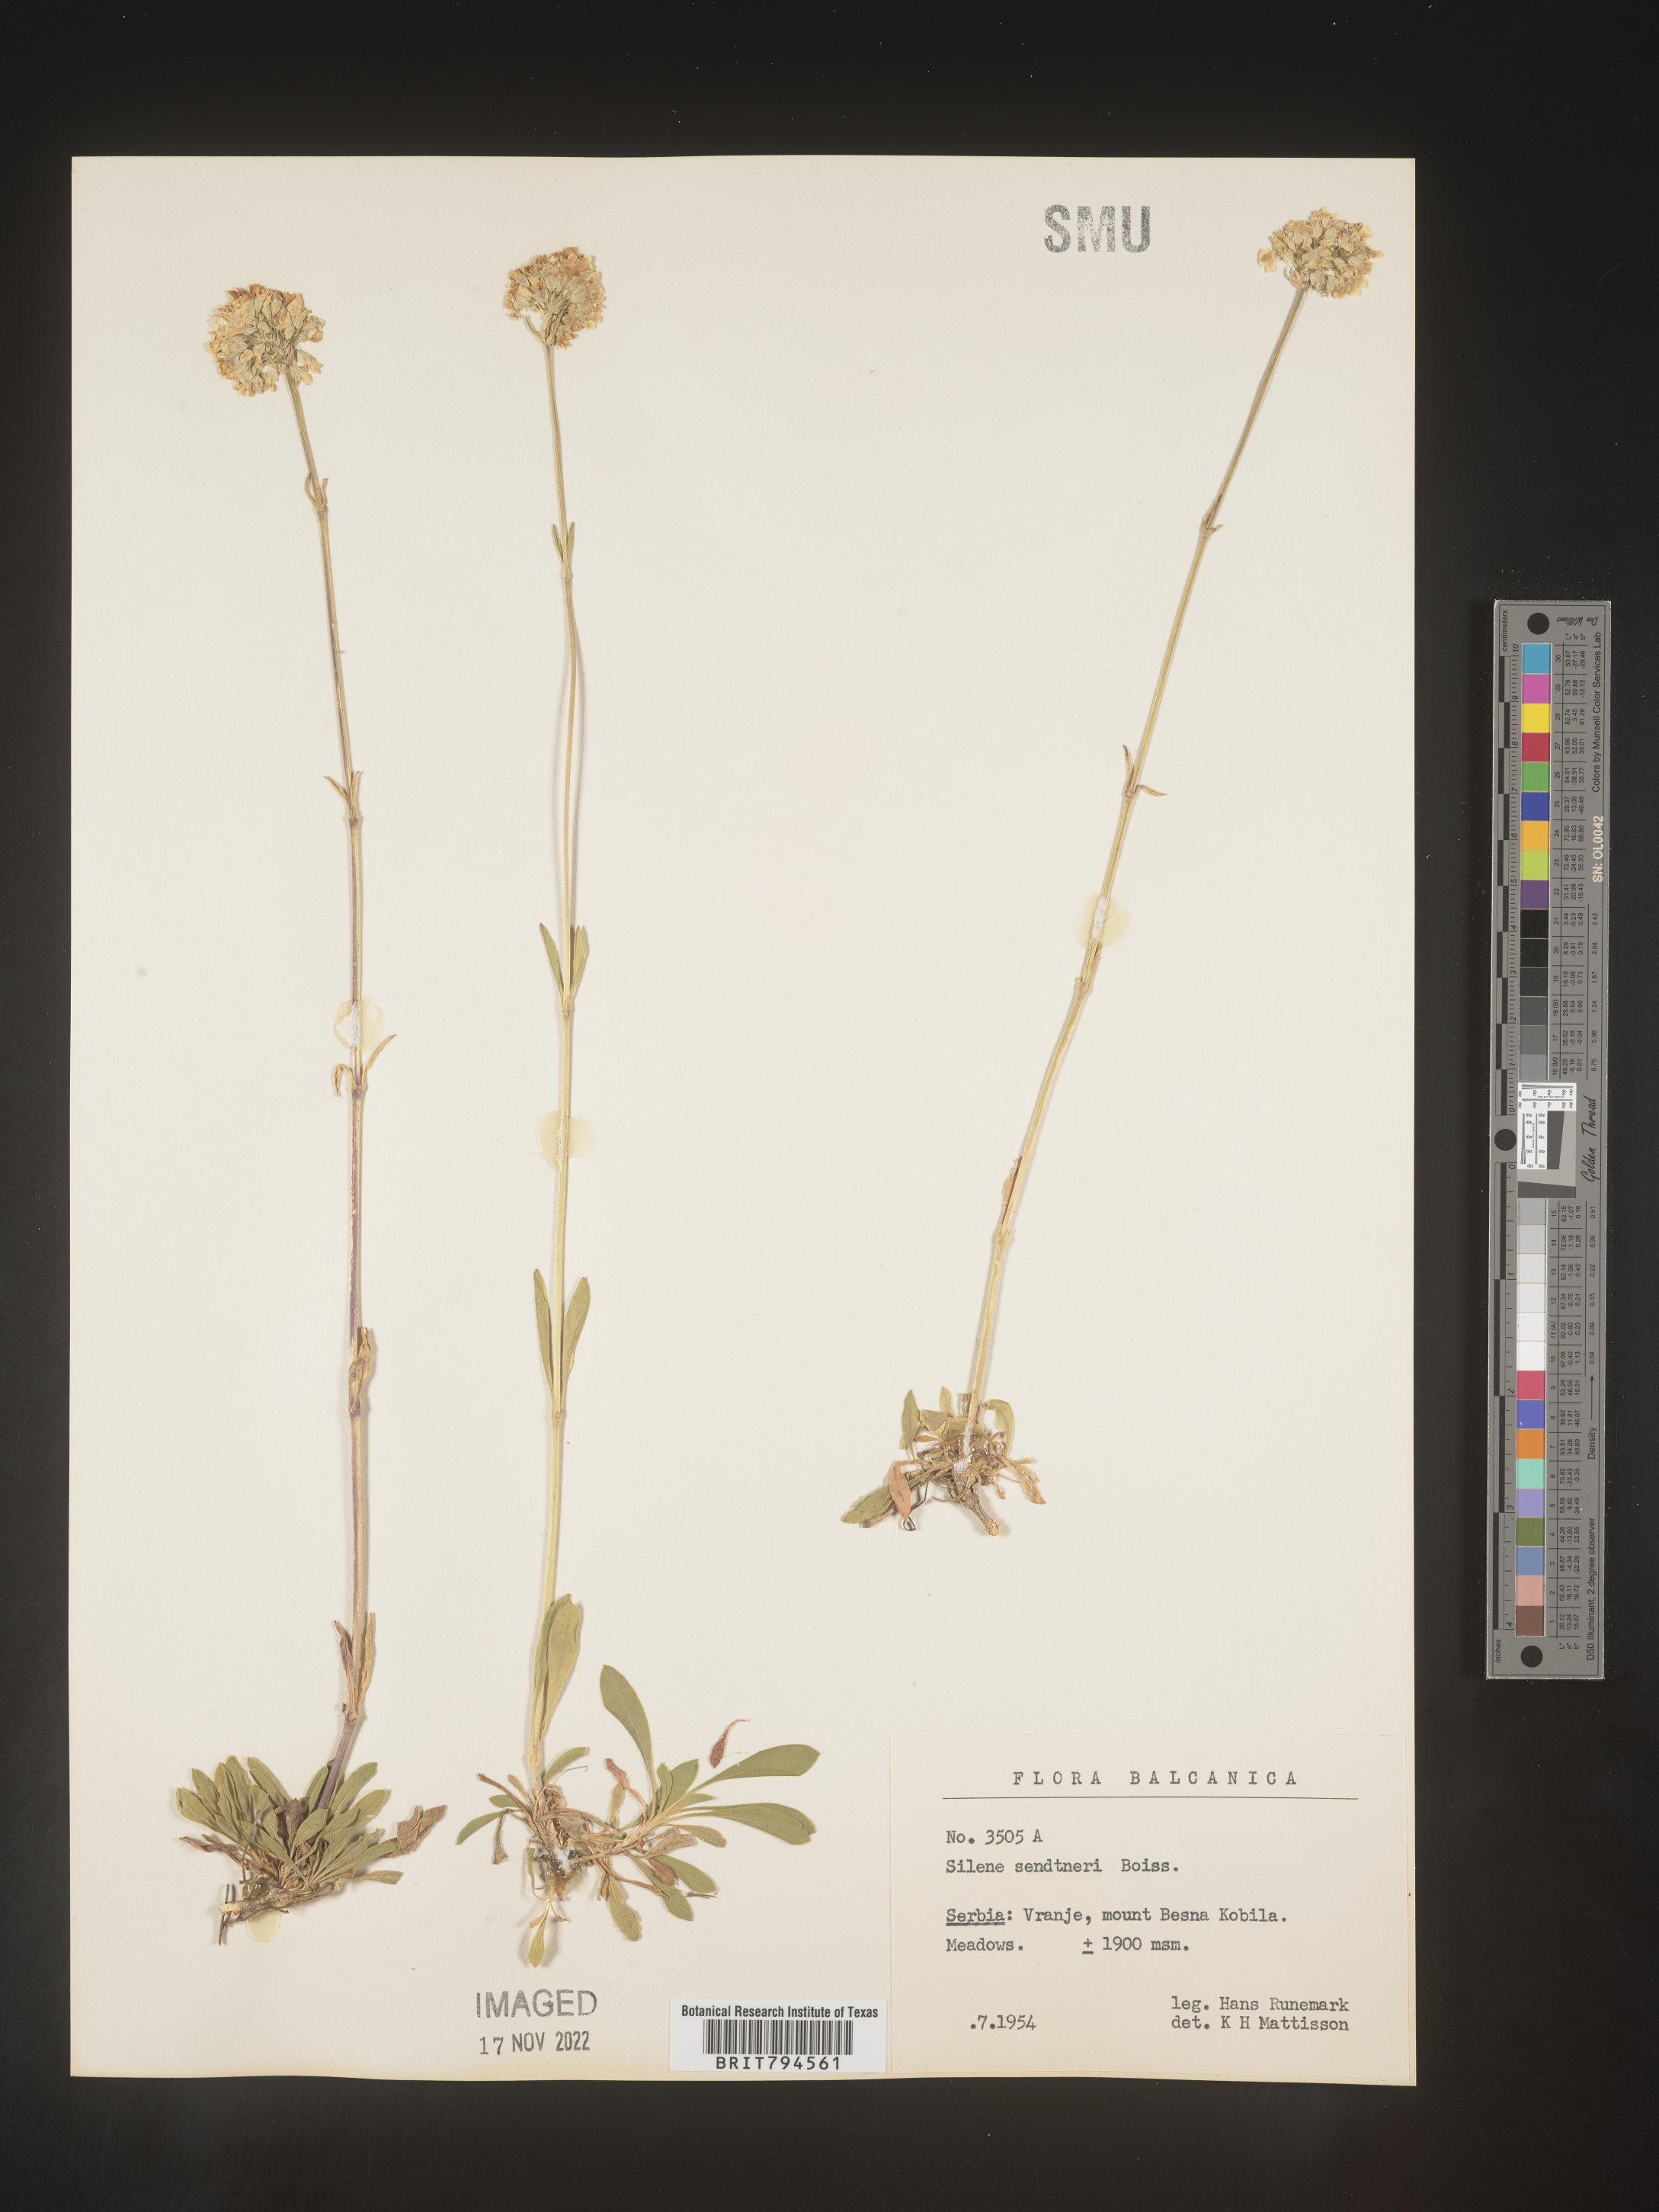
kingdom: Plantae
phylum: Tracheophyta
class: Magnoliopsida
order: Caryophyllales
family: Caryophyllaceae
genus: Silene
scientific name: Silene sendtneri
